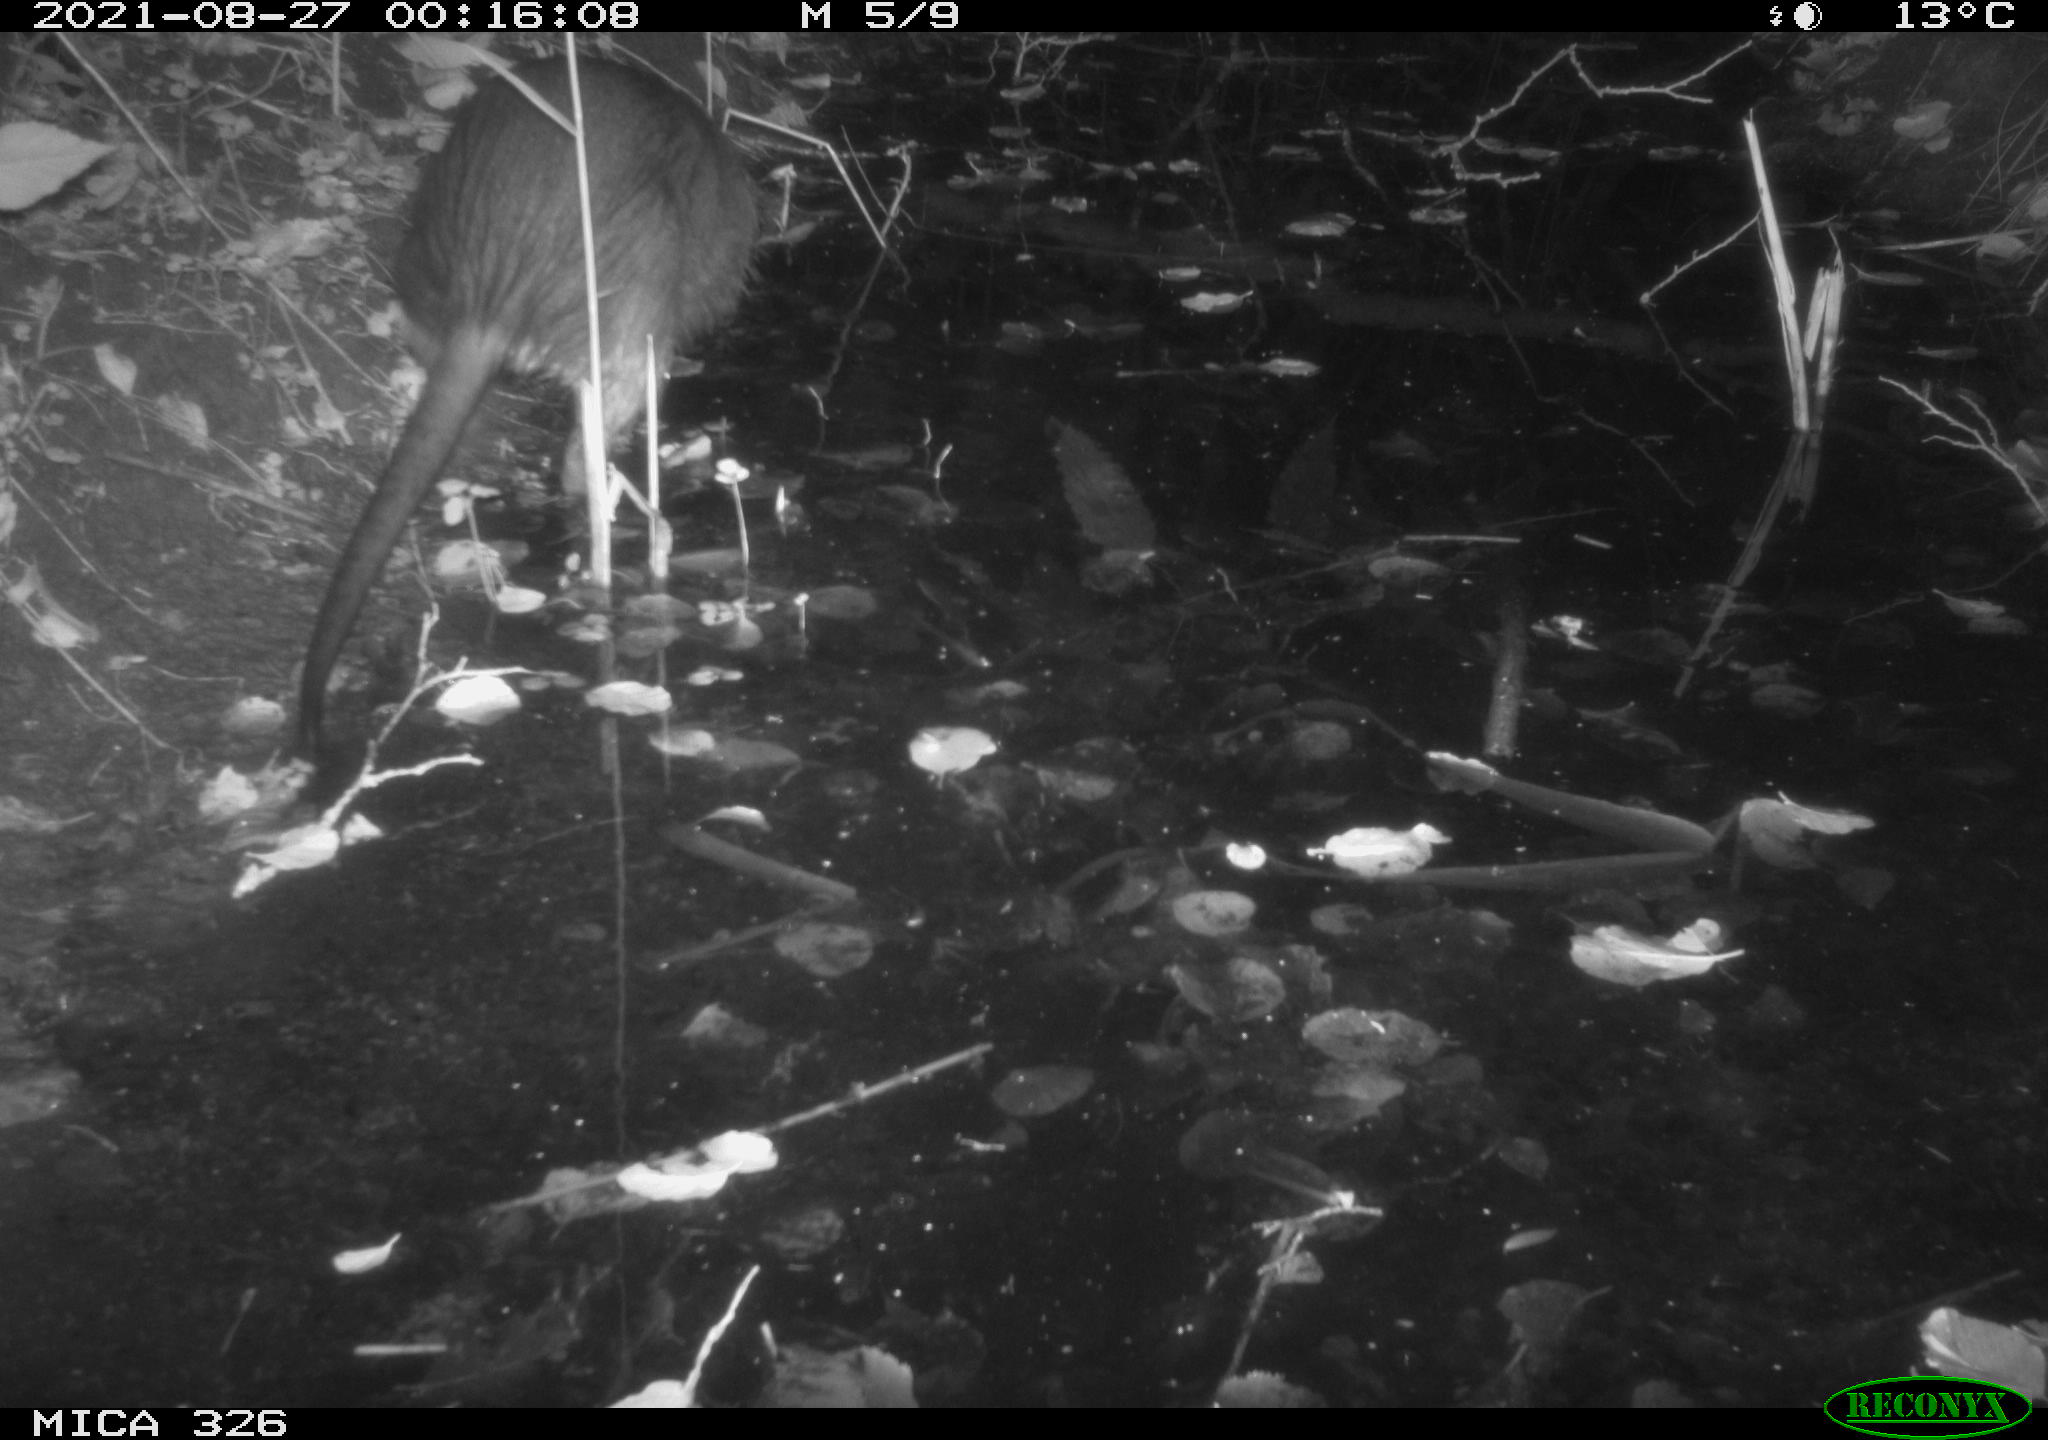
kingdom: Animalia
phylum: Chordata
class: Mammalia
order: Rodentia
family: Myocastoridae
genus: Myocastor
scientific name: Myocastor coypus
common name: Coypu
